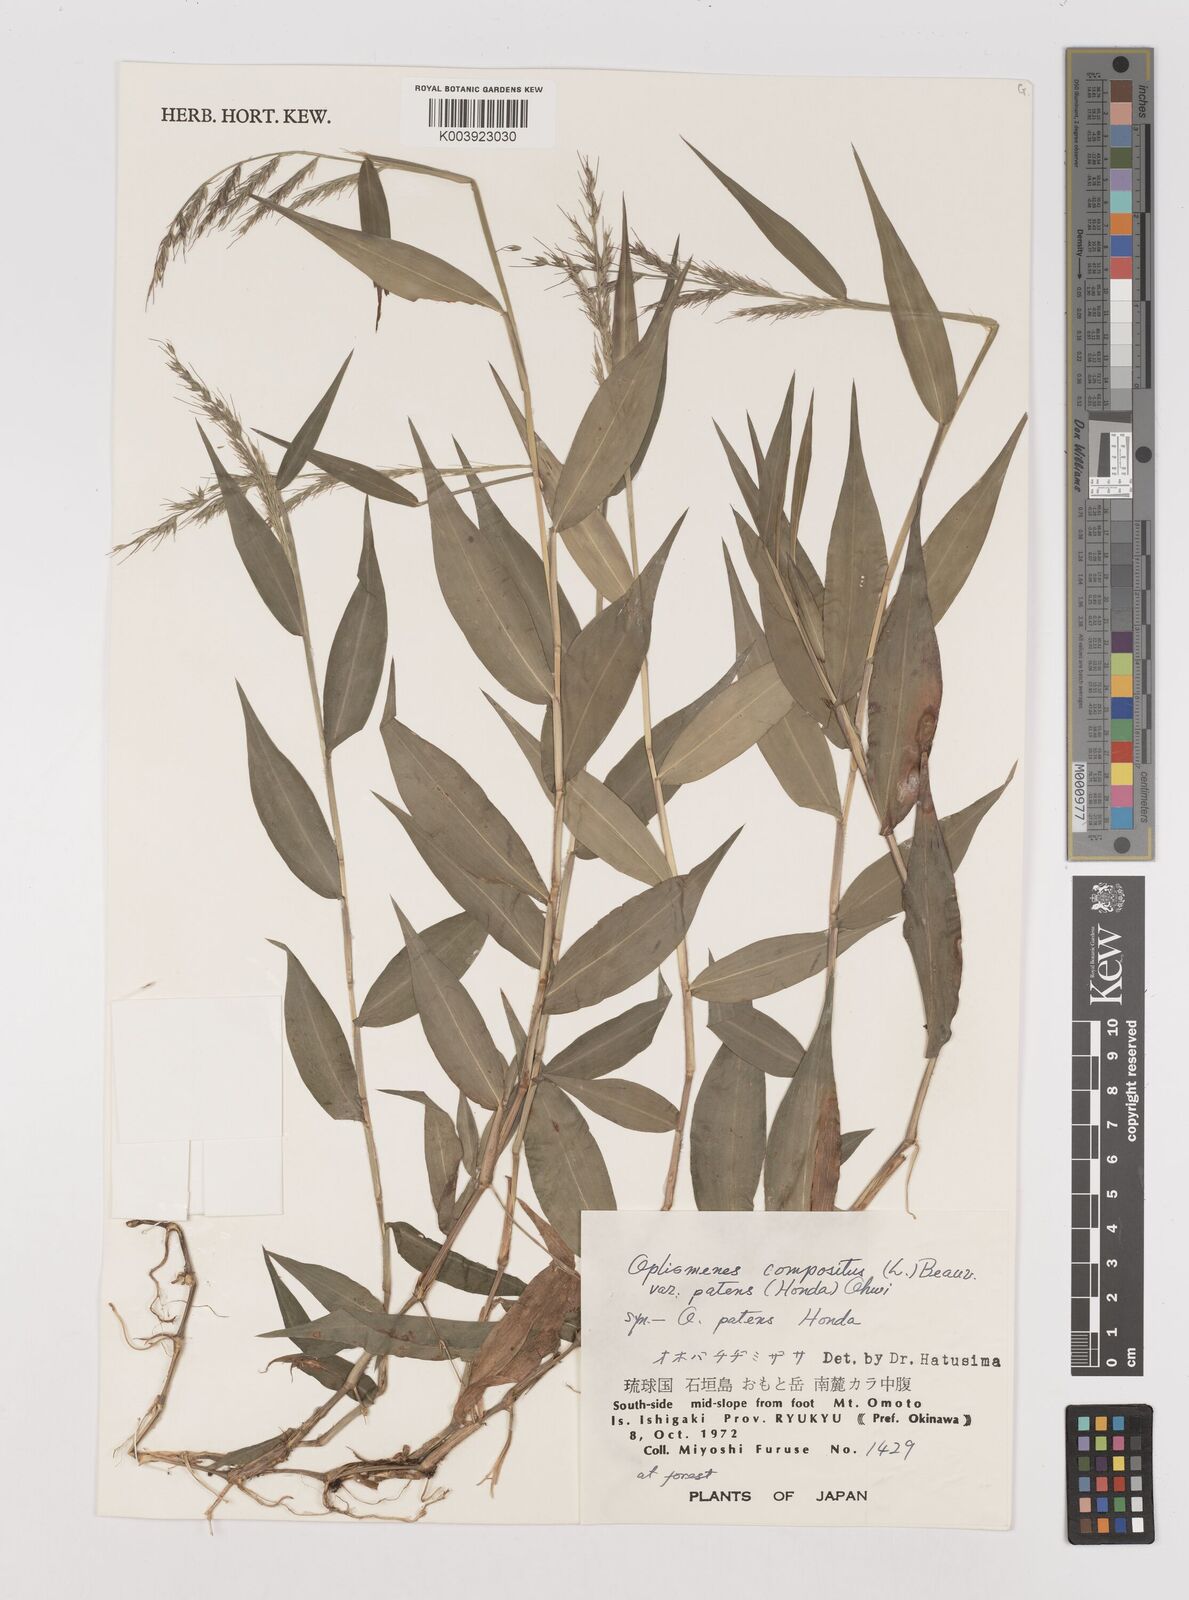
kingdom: Plantae
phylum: Tracheophyta
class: Liliopsida
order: Poales
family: Poaceae
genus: Oplismenus
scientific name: Oplismenus compositus
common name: Running mountain grass
